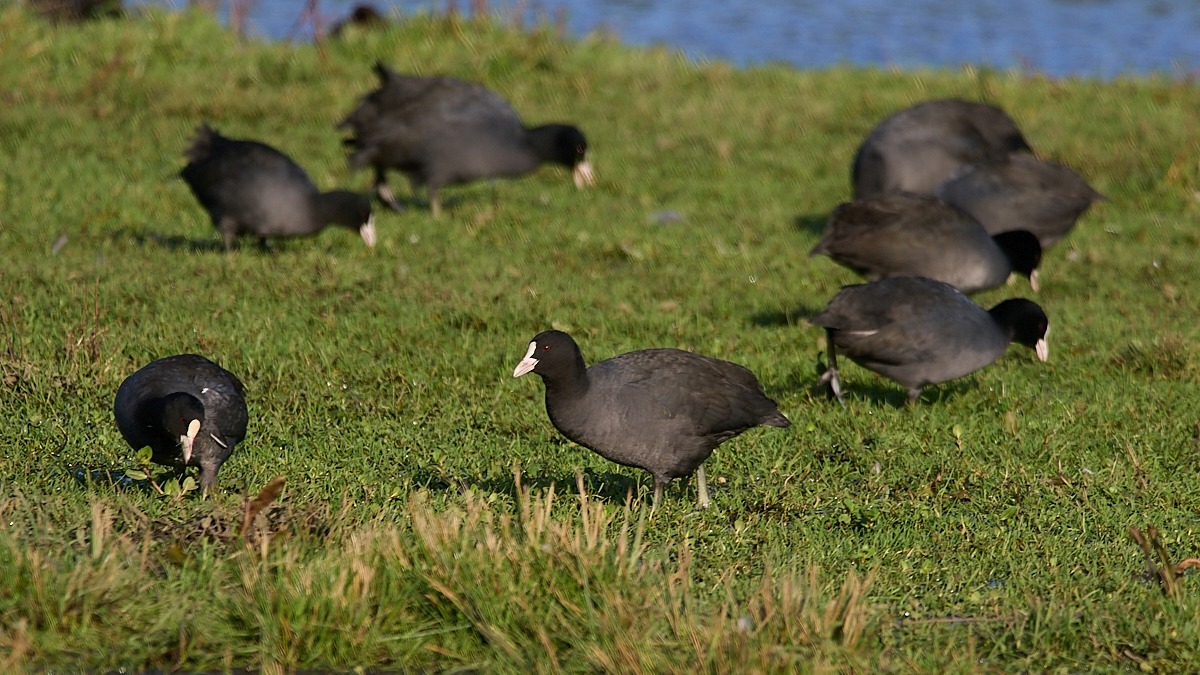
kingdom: Animalia
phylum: Chordata
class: Aves
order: Gruiformes
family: Rallidae
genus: Fulica
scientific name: Fulica atra
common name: Blishøne
